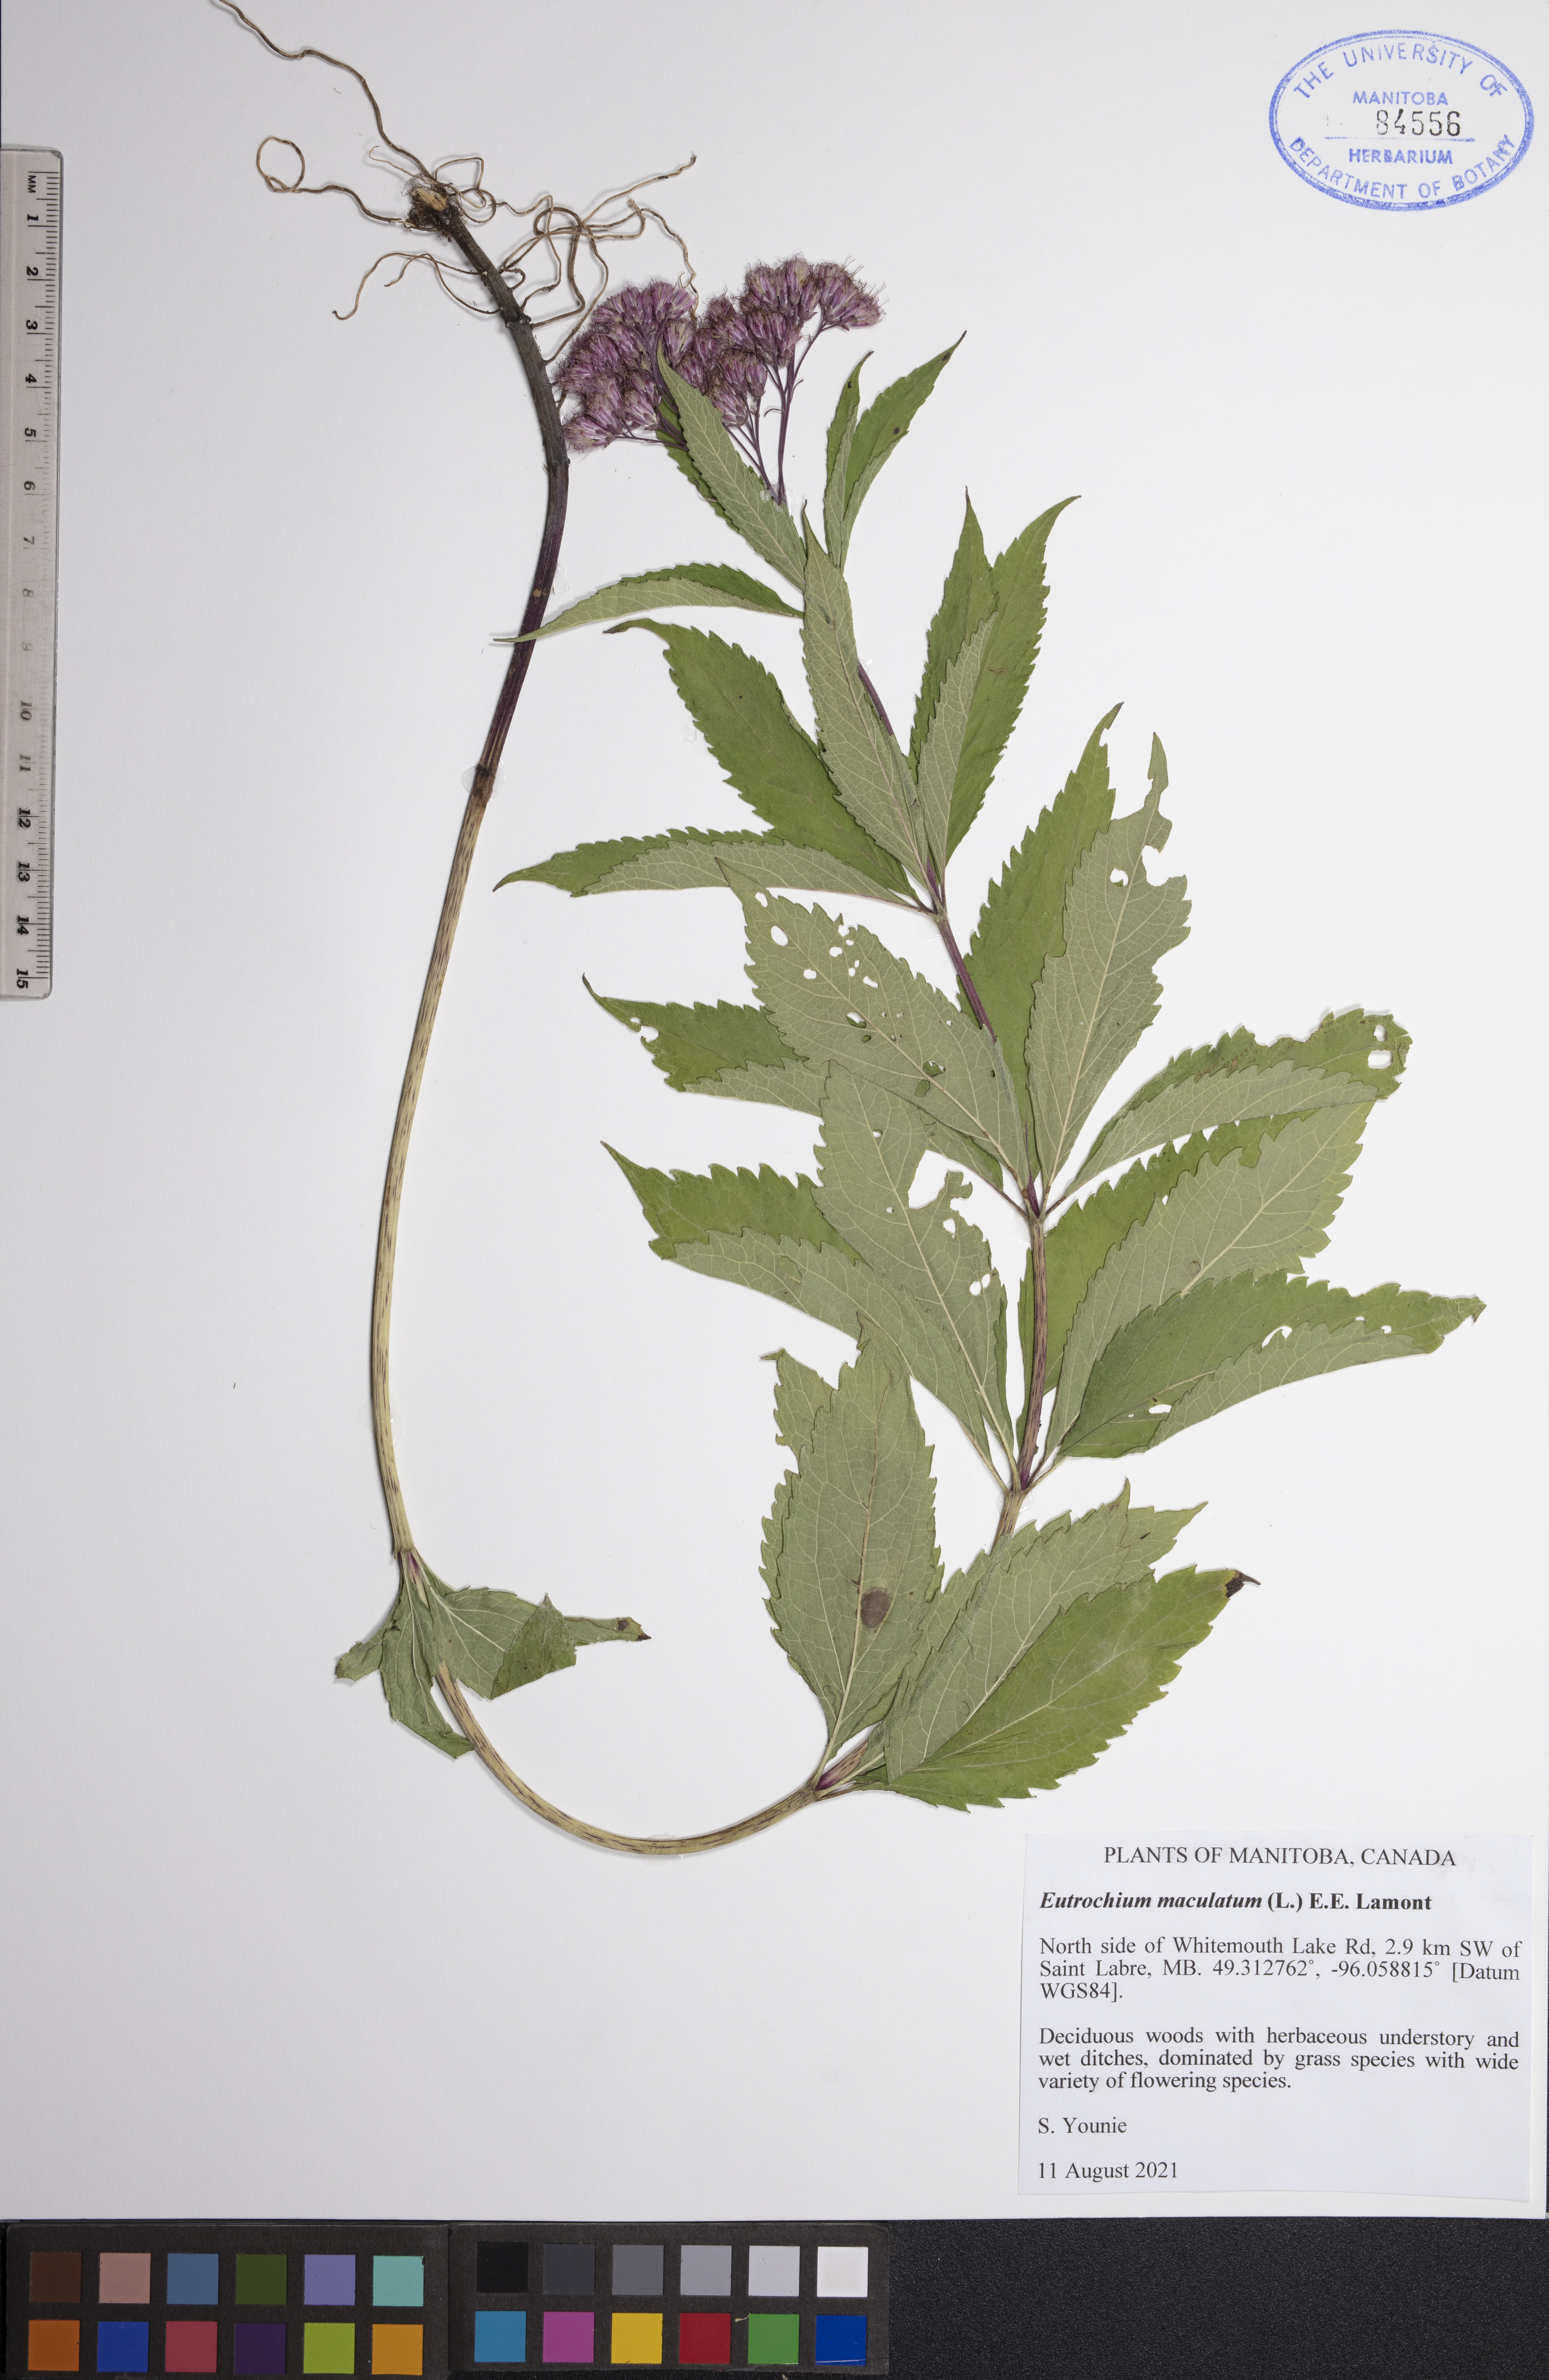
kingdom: Plantae
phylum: Tracheophyta
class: Magnoliopsida
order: Asterales
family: Asteraceae
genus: Eutrochium
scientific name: Eutrochium maculatum
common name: Spotted joe pye weed
